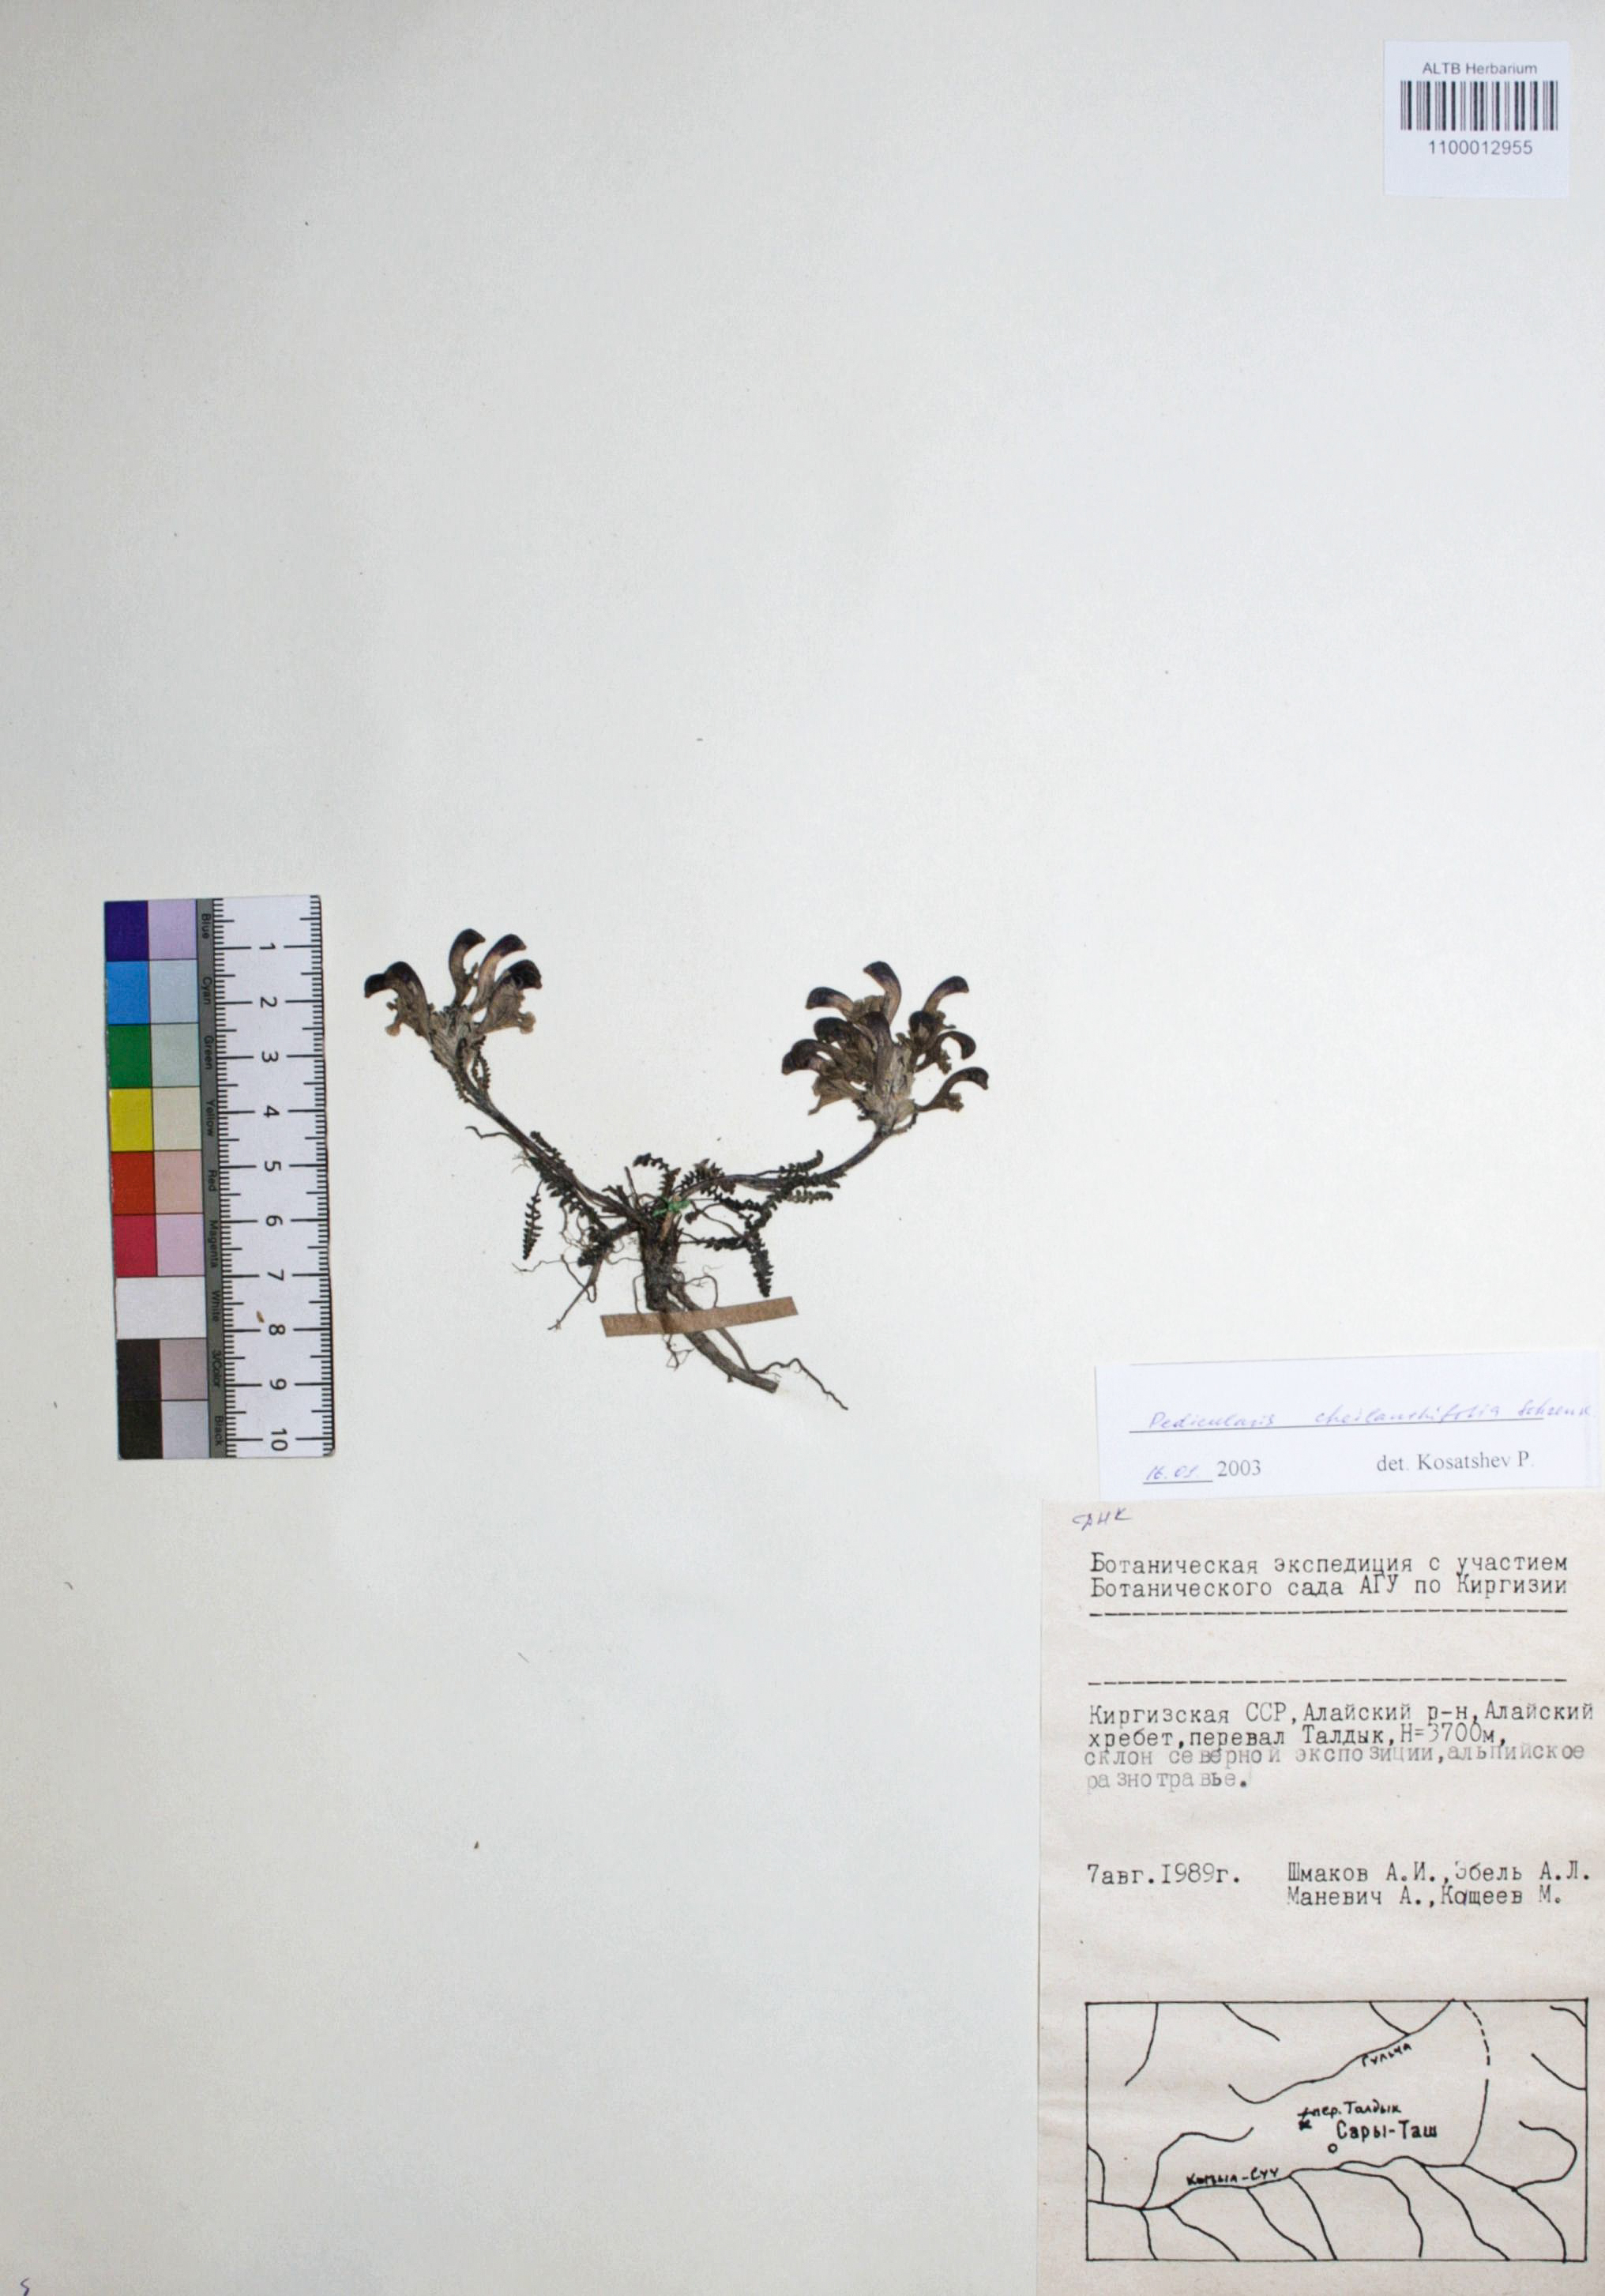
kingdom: Plantae
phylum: Tracheophyta
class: Magnoliopsida
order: Lamiales
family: Orobanchaceae
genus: Pedicularis
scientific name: Pedicularis cheilanthifolia
